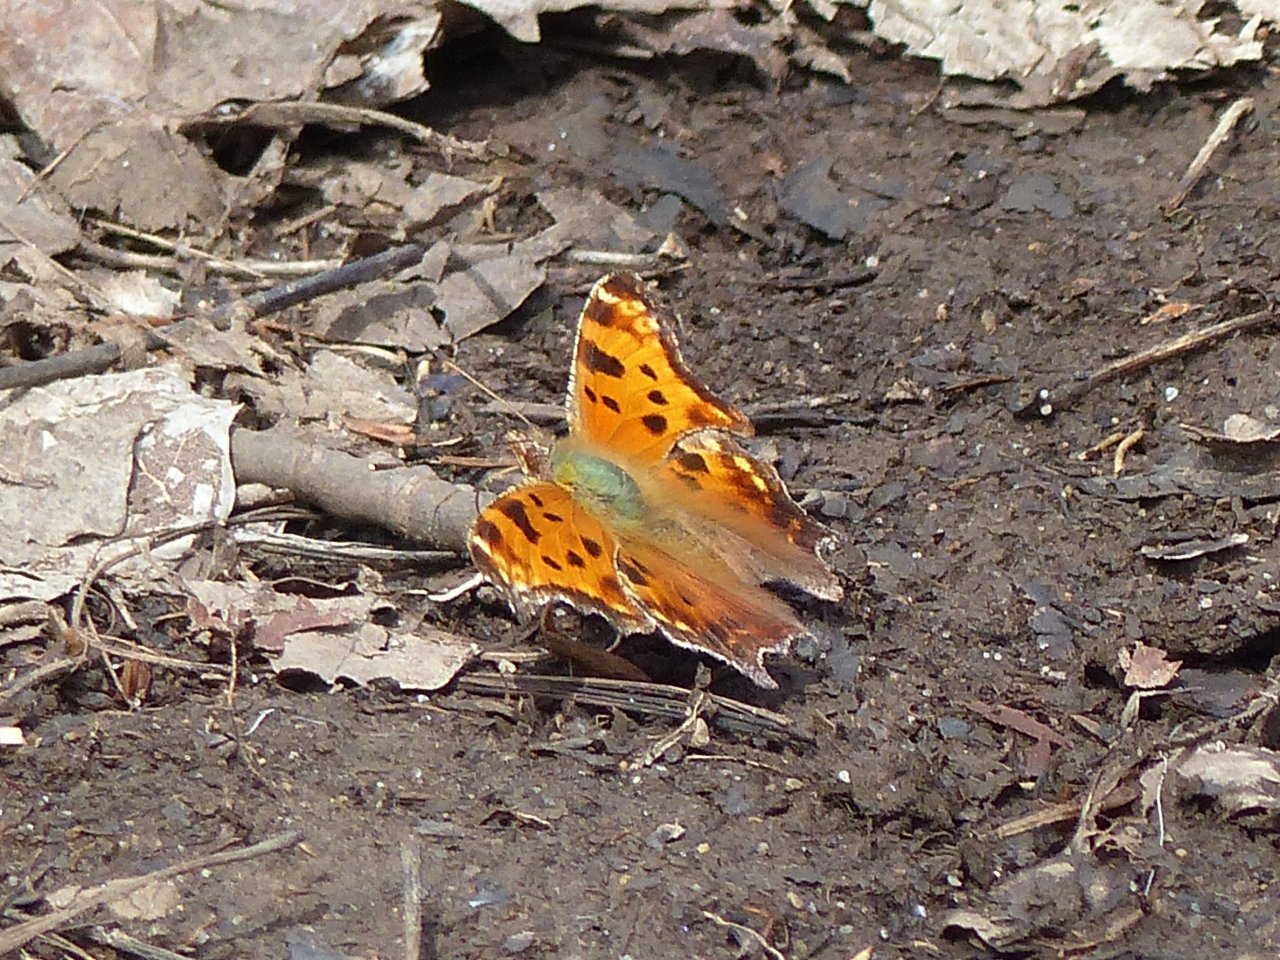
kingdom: Animalia
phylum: Arthropoda
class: Insecta
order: Lepidoptera
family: Nymphalidae
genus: Polygonia
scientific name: Polygonia comma
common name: Eastern Comma
